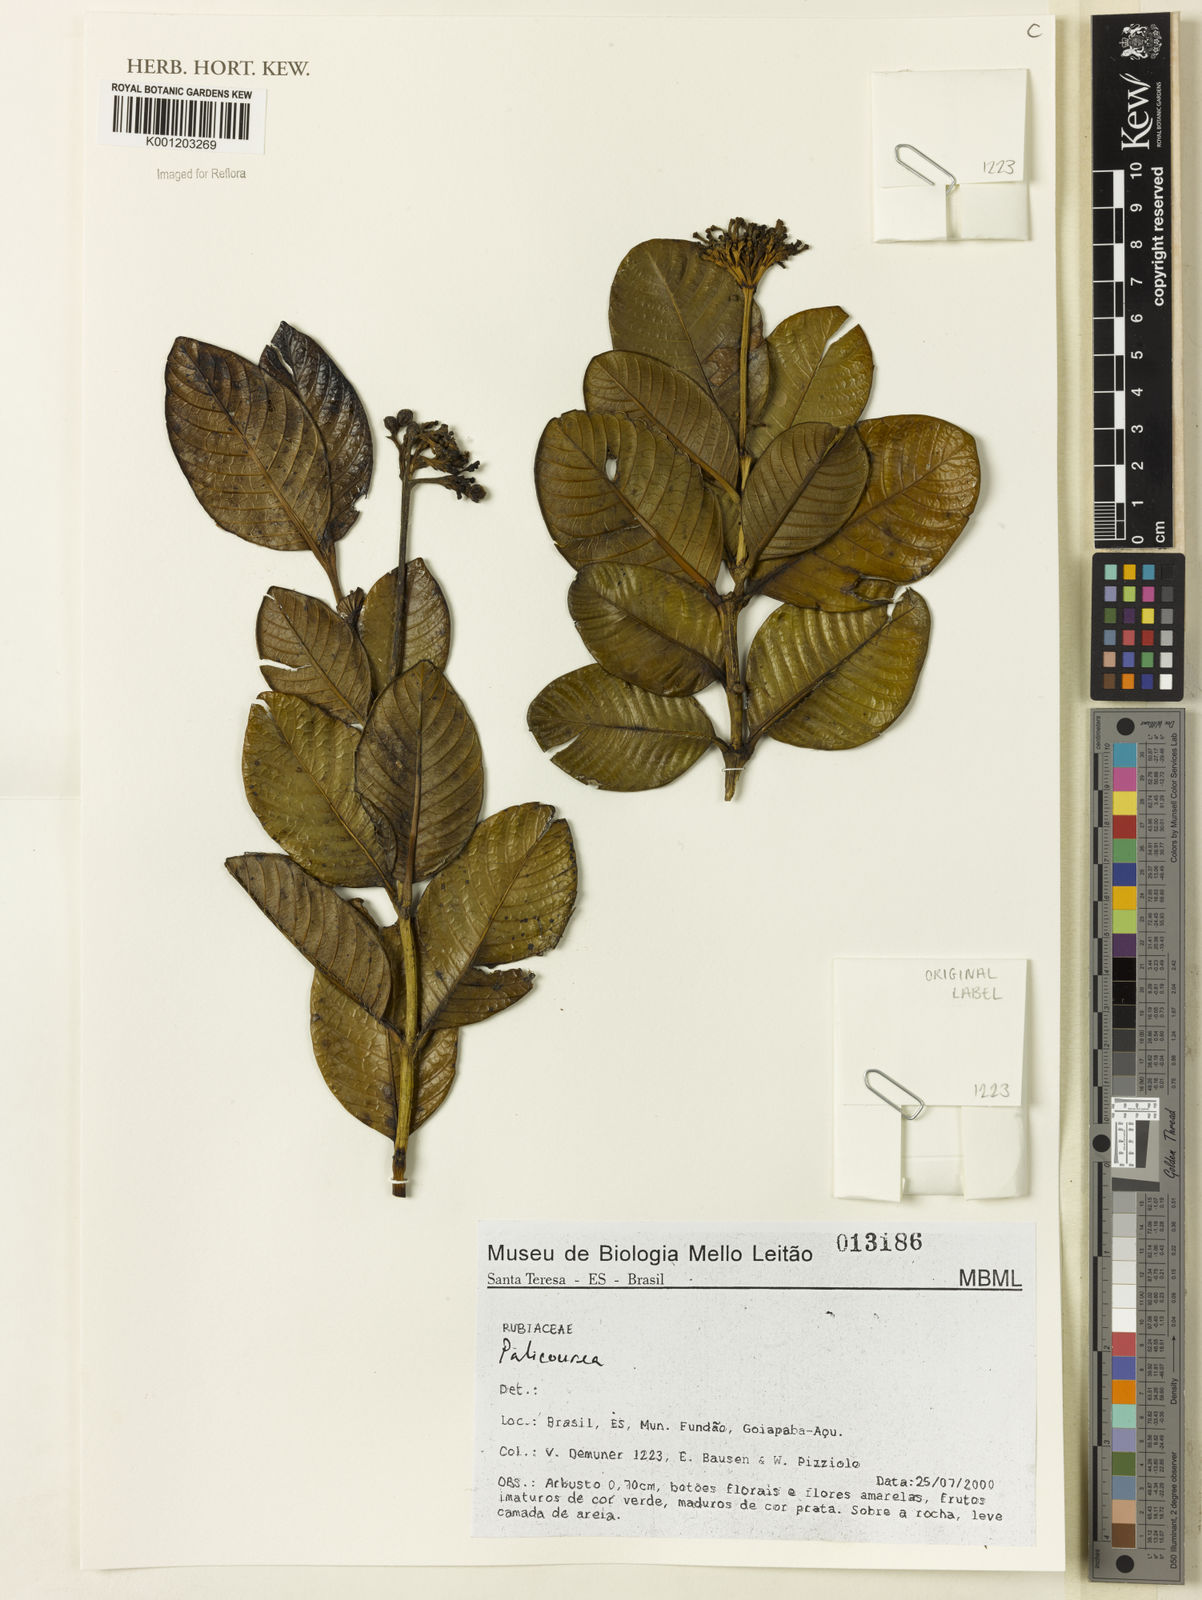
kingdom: Plantae
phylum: Tracheophyta
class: Magnoliopsida
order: Gentianales
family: Rubiaceae
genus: Palicourea
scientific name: Palicourea
